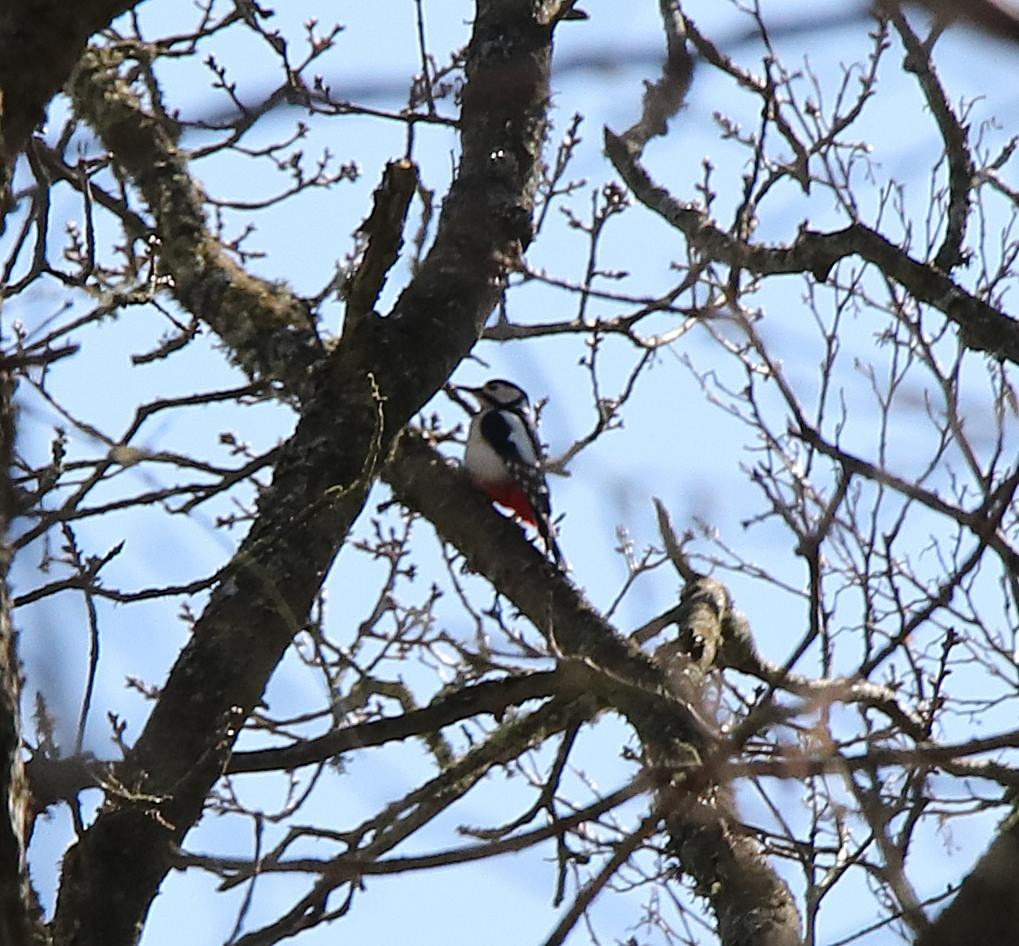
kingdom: Animalia
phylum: Chordata
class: Aves
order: Piciformes
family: Picidae
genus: Dendrocopos
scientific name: Dendrocopos major
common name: Stor flagspætte
